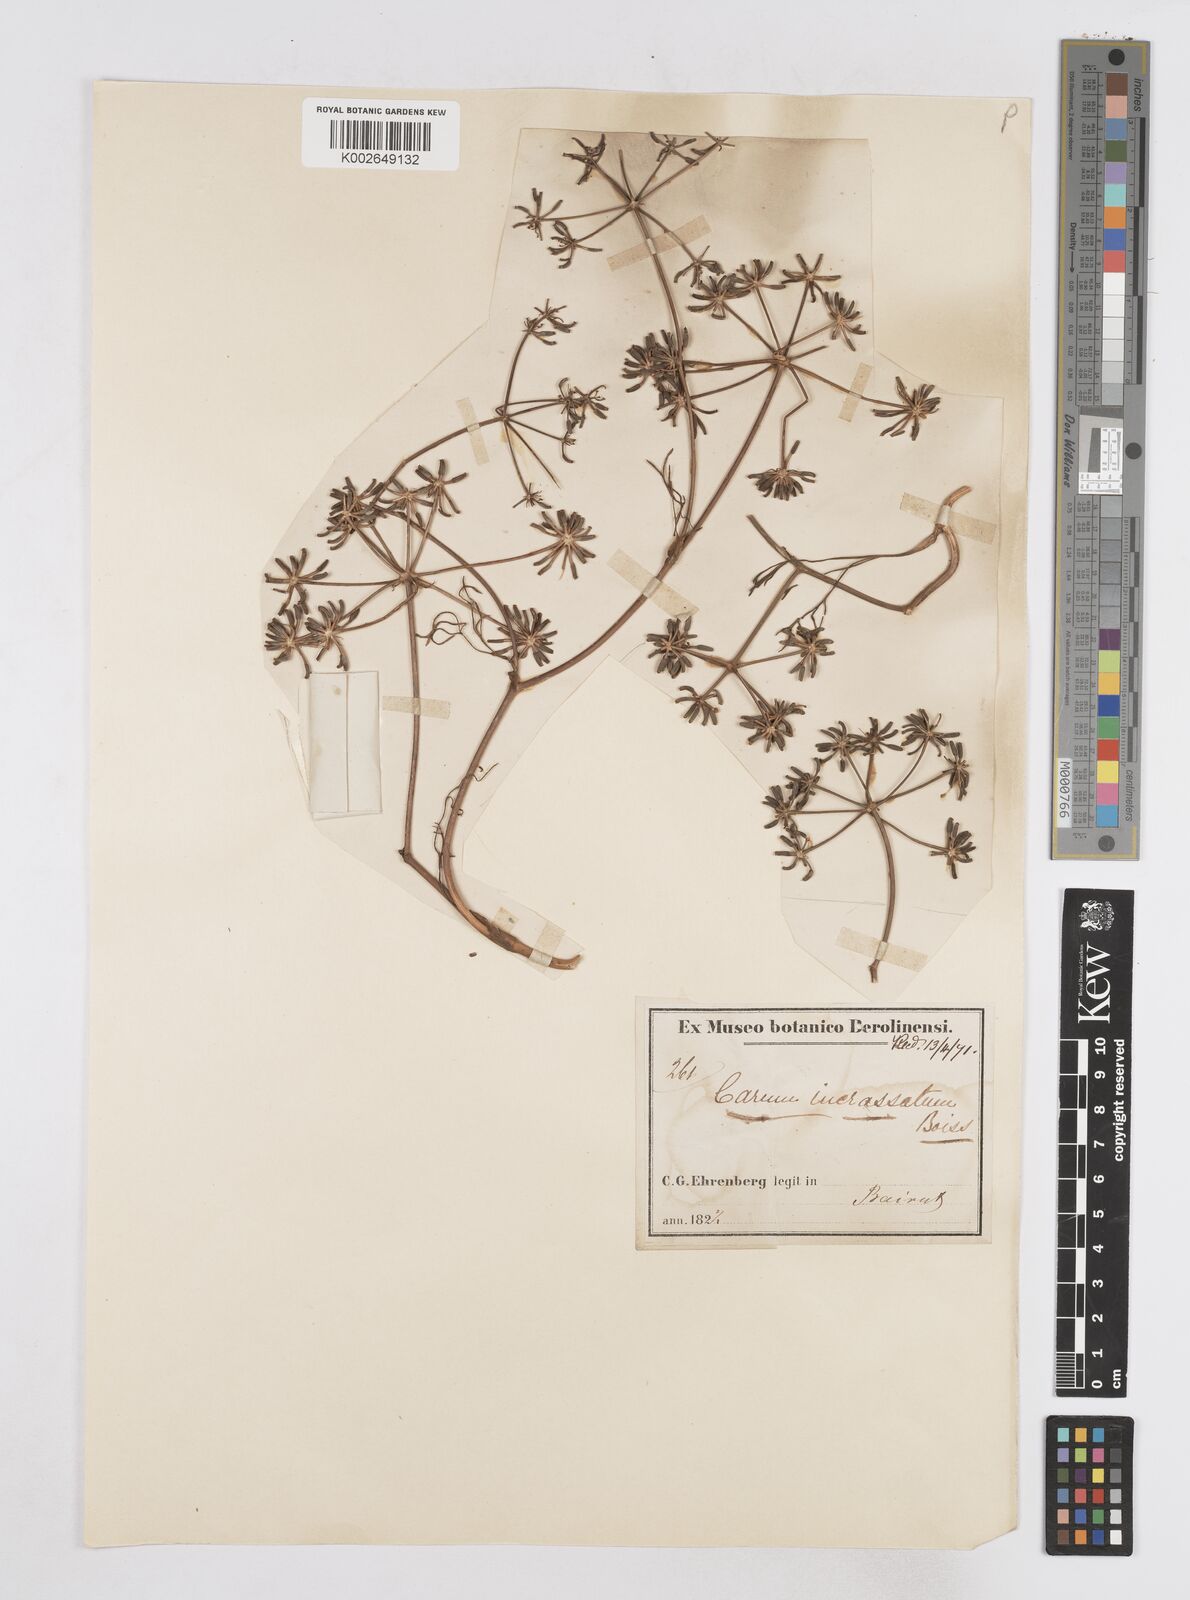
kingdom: Plantae
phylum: Tracheophyta
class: Magnoliopsida
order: Apiales
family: Apiaceae
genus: Bunium
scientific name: Bunium
